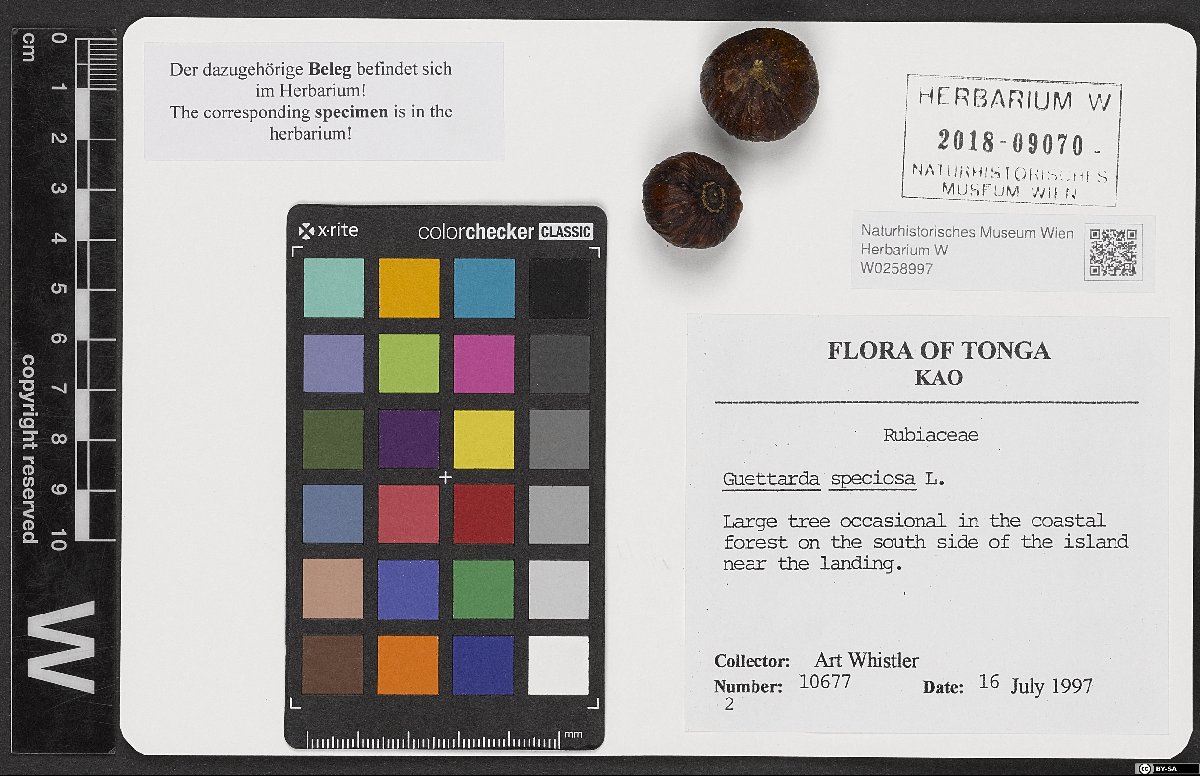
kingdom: Plantae
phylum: Tracheophyta
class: Magnoliopsida
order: Gentianales
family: Rubiaceae
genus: Guettarda
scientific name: Guettarda speciosa
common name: Sea randa
